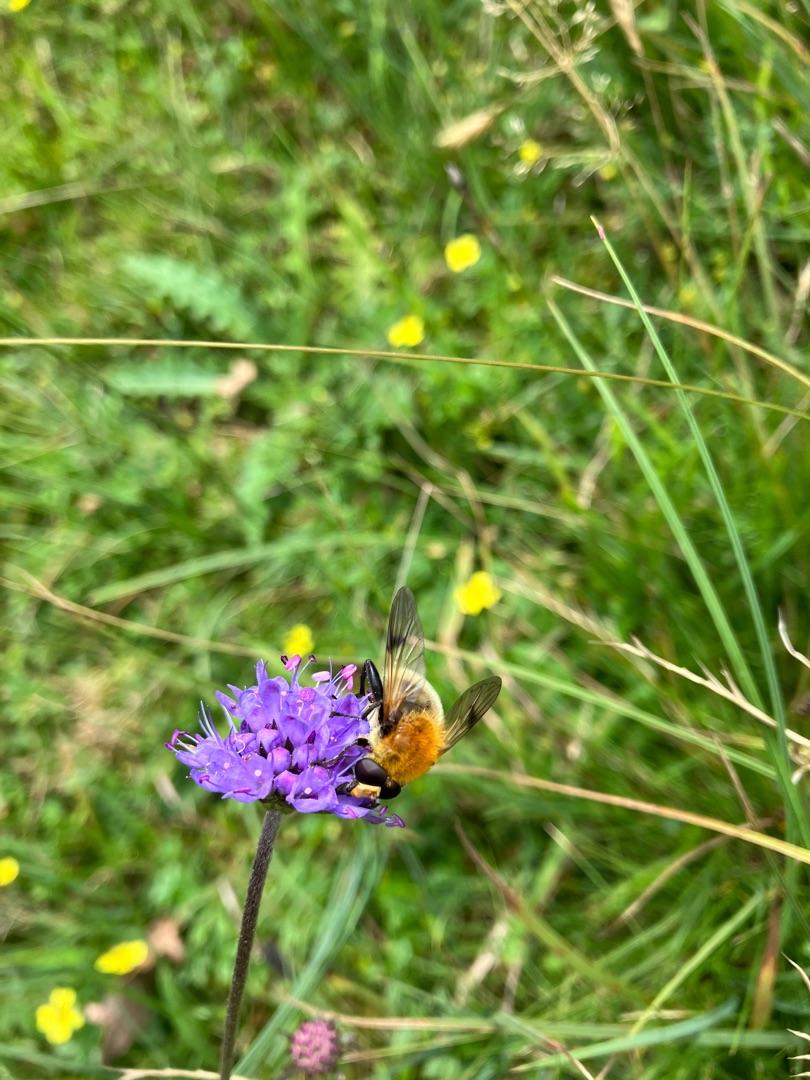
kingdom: Animalia
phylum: Arthropoda
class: Insecta
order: Diptera
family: Syrphidae
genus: Sericomyia
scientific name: Sericomyia superbiens
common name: Brun bjørnesvirreflue
